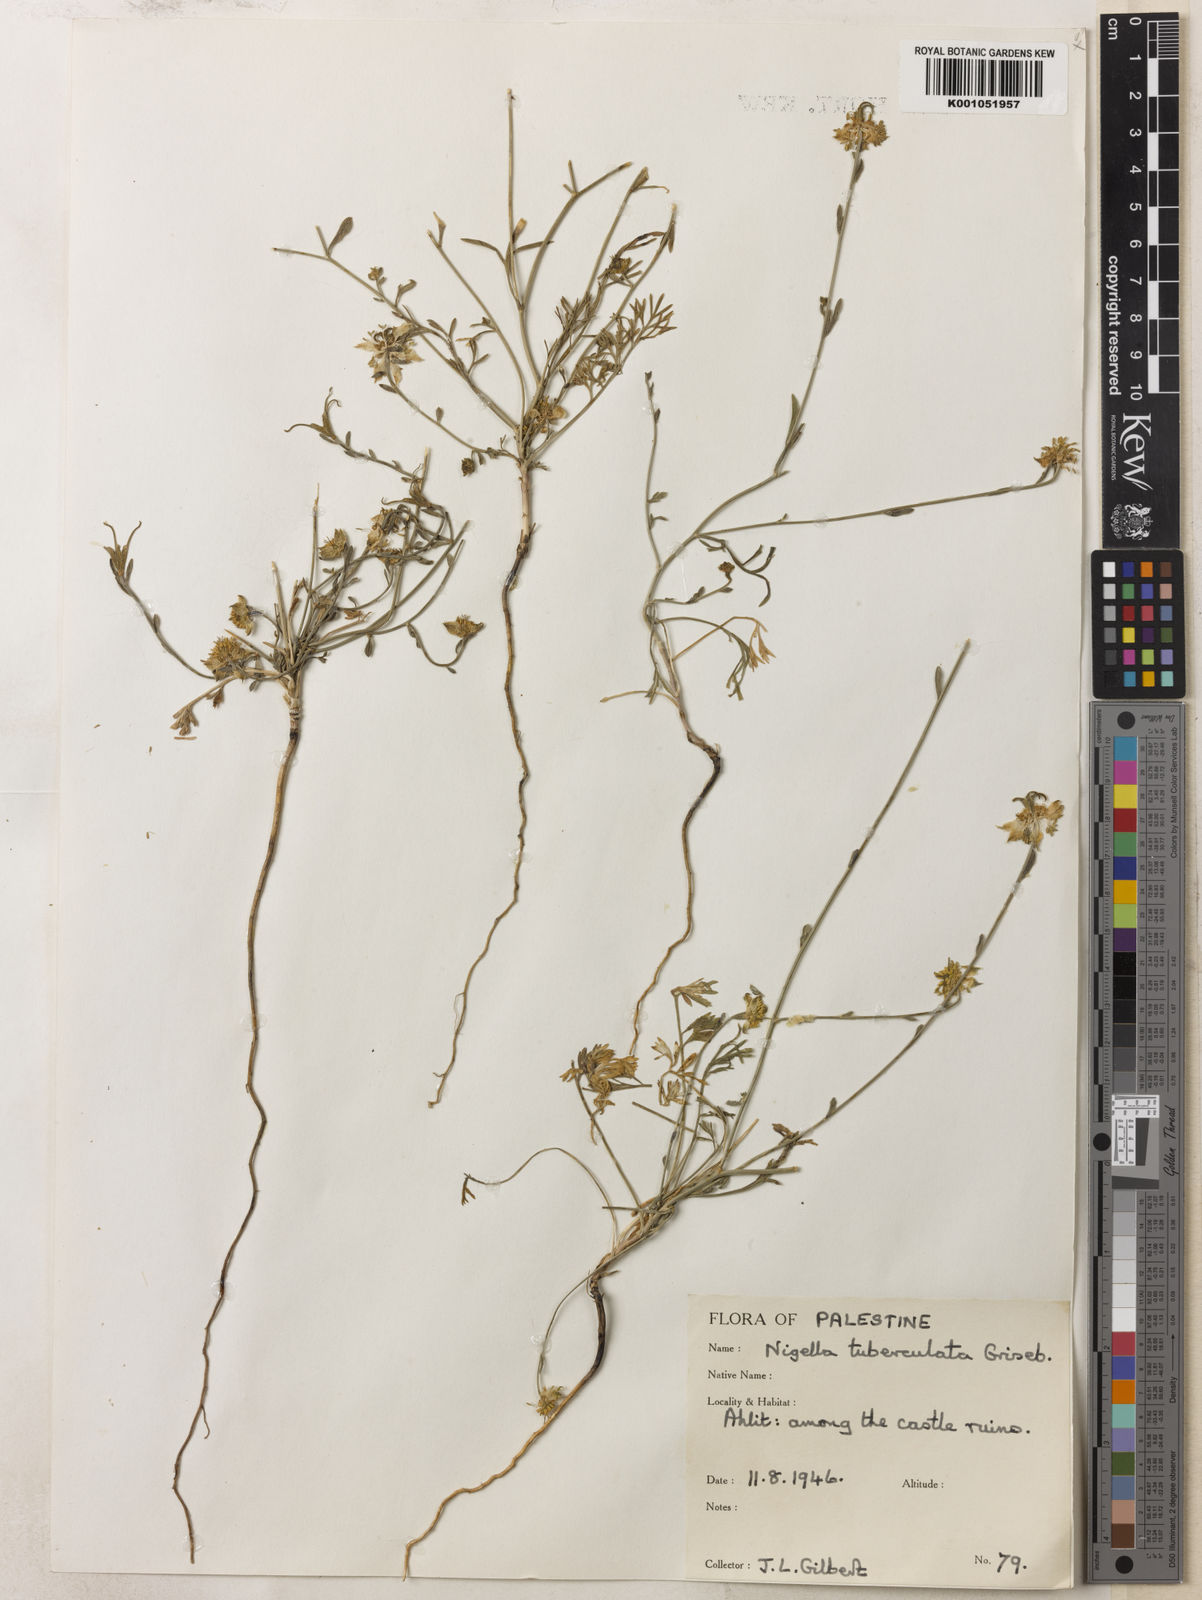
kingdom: Plantae
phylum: Tracheophyta
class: Magnoliopsida
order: Ranunculales
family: Ranunculaceae
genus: Nigella
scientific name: Nigella arvensis
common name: Wild fennel-flower
